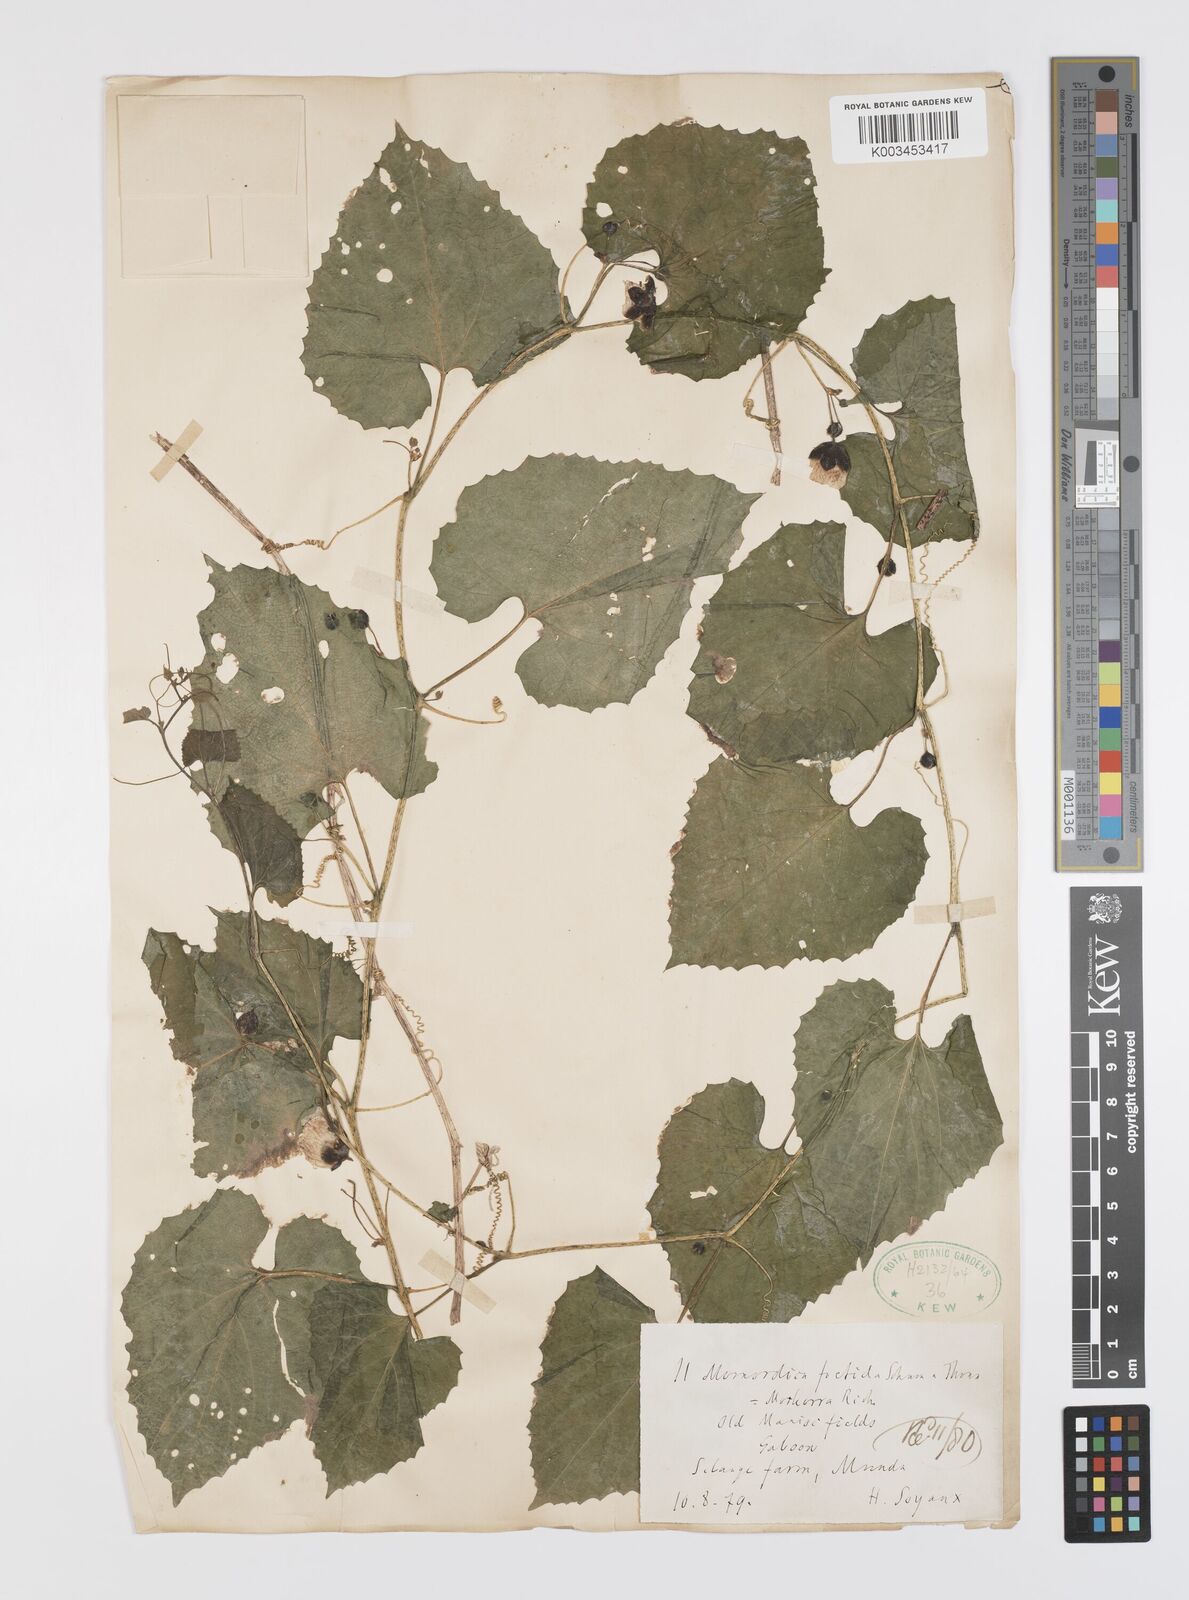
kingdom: Plantae
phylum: Tracheophyta
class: Magnoliopsida
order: Cucurbitales
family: Cucurbitaceae
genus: Momordica
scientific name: Momordica foetida
